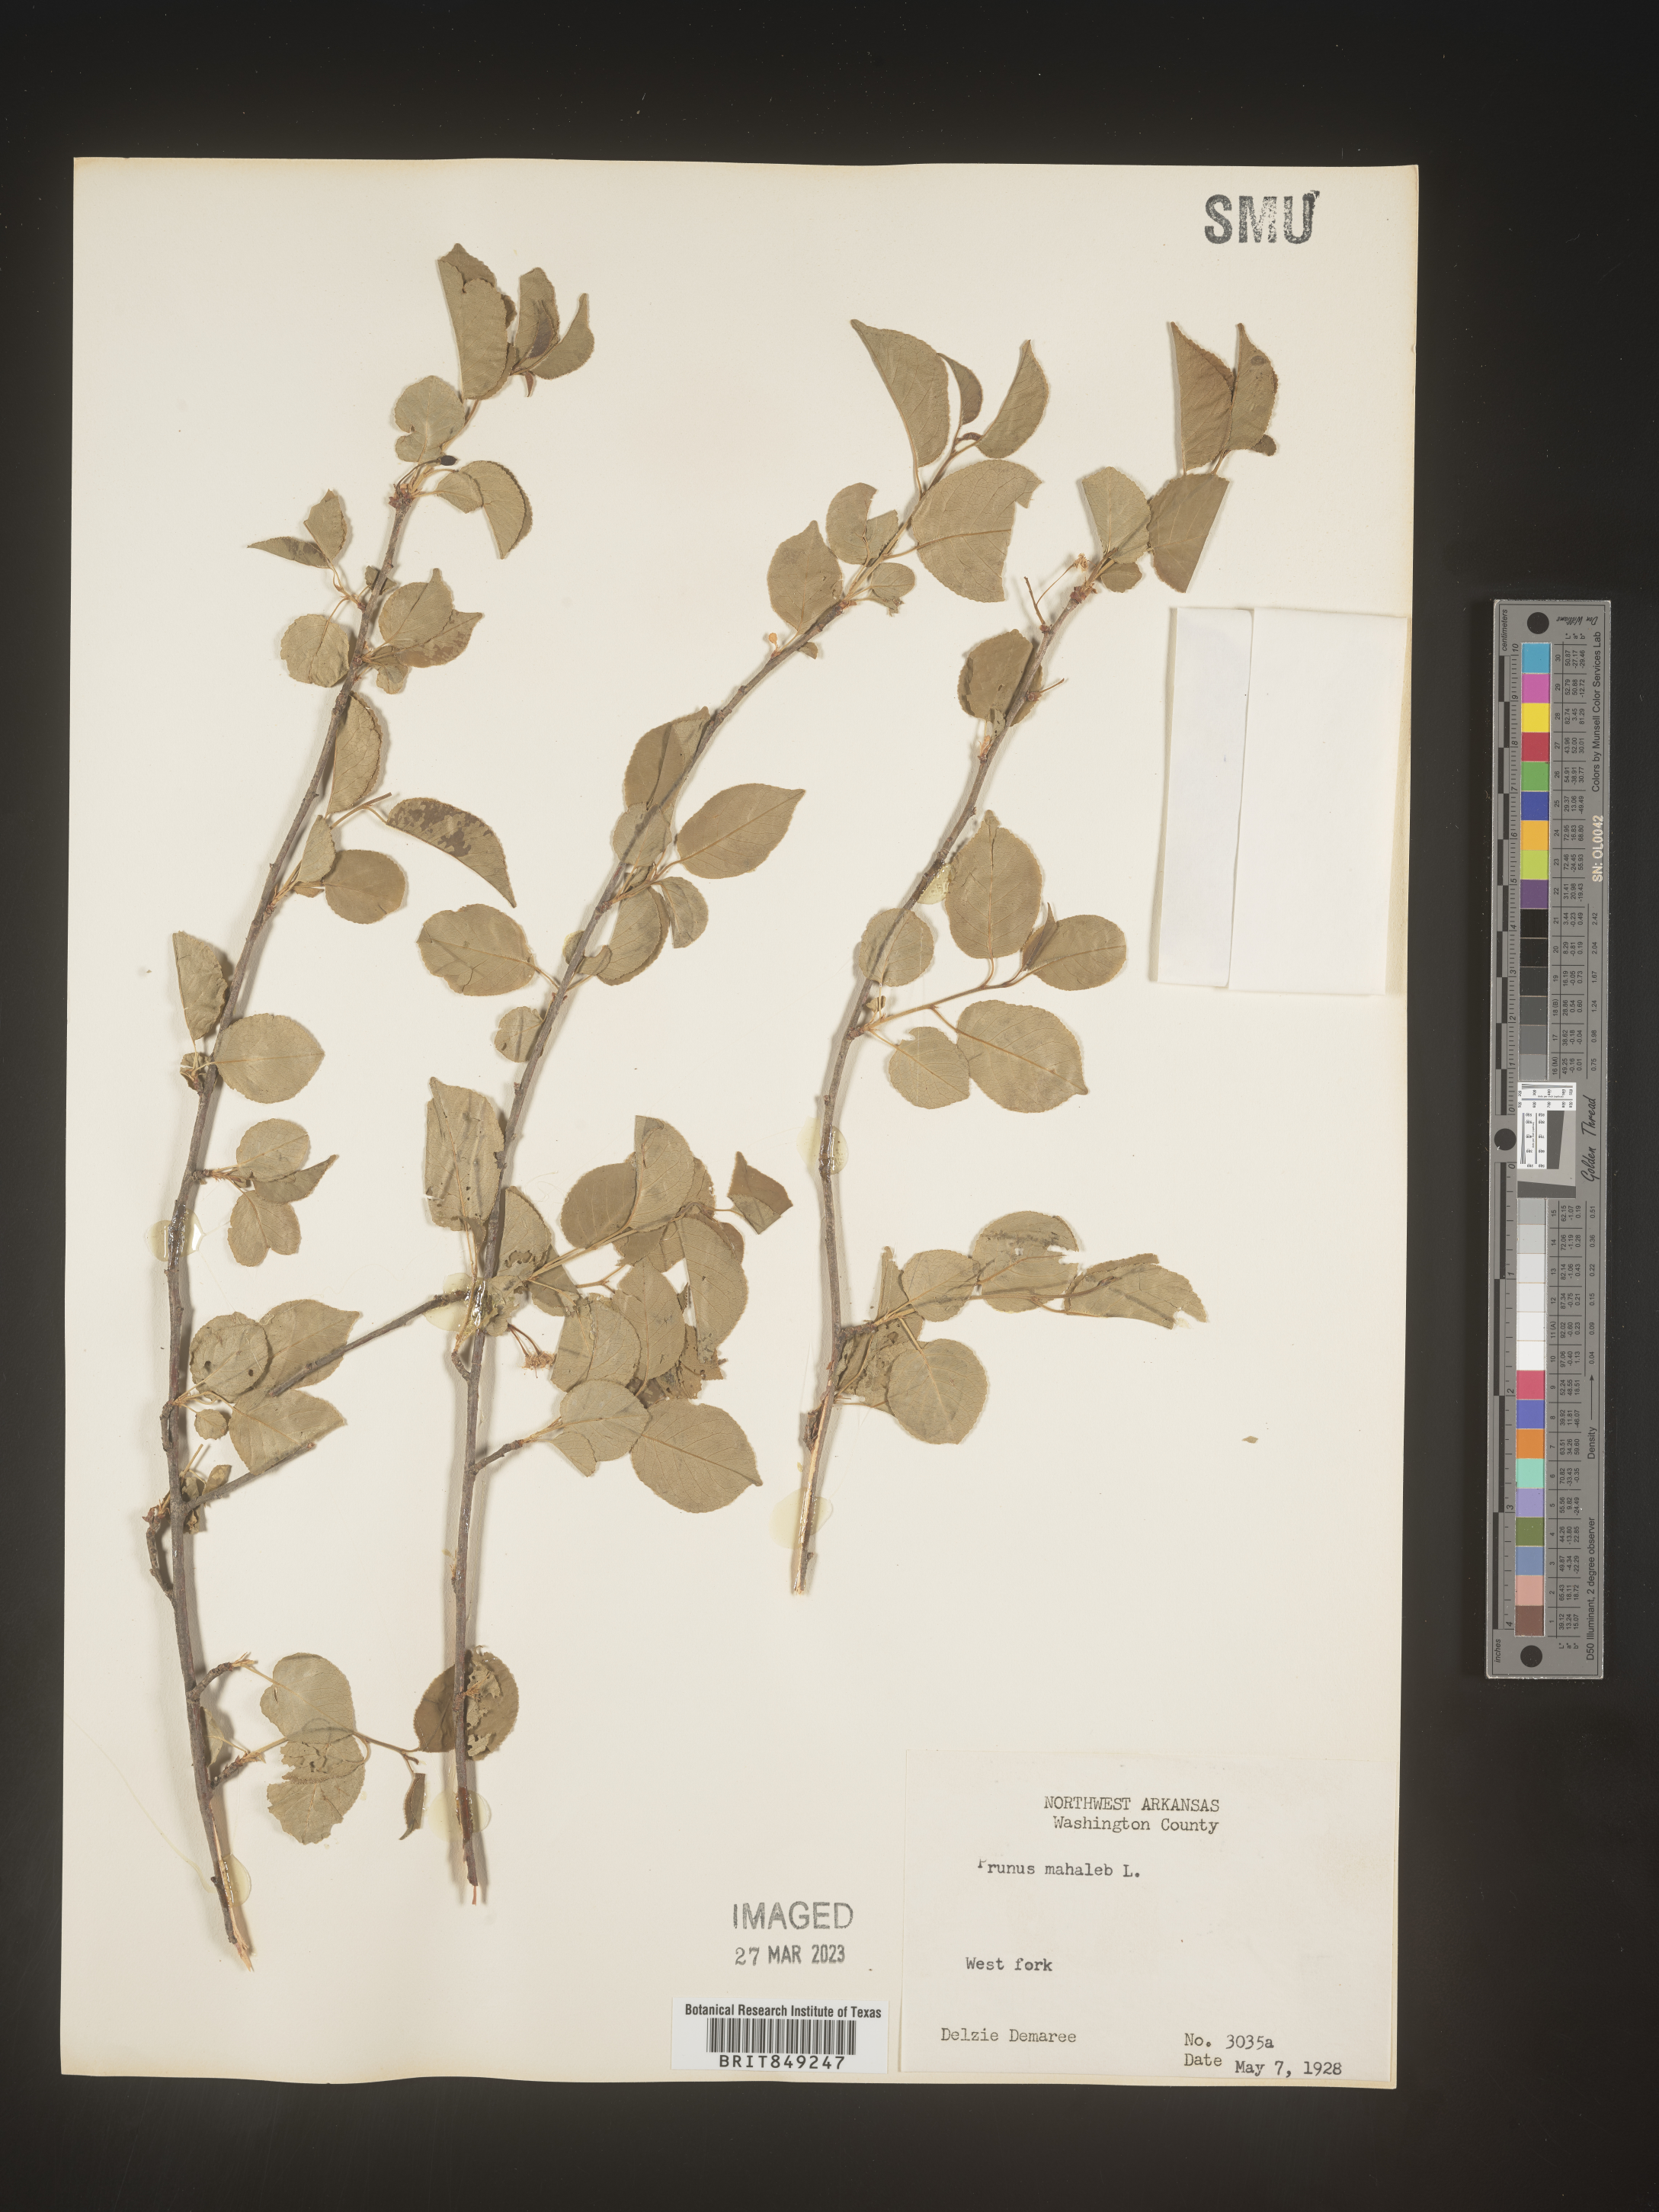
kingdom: Plantae
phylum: Tracheophyta
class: Magnoliopsida
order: Rosales
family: Rosaceae
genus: Prunus
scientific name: Prunus
